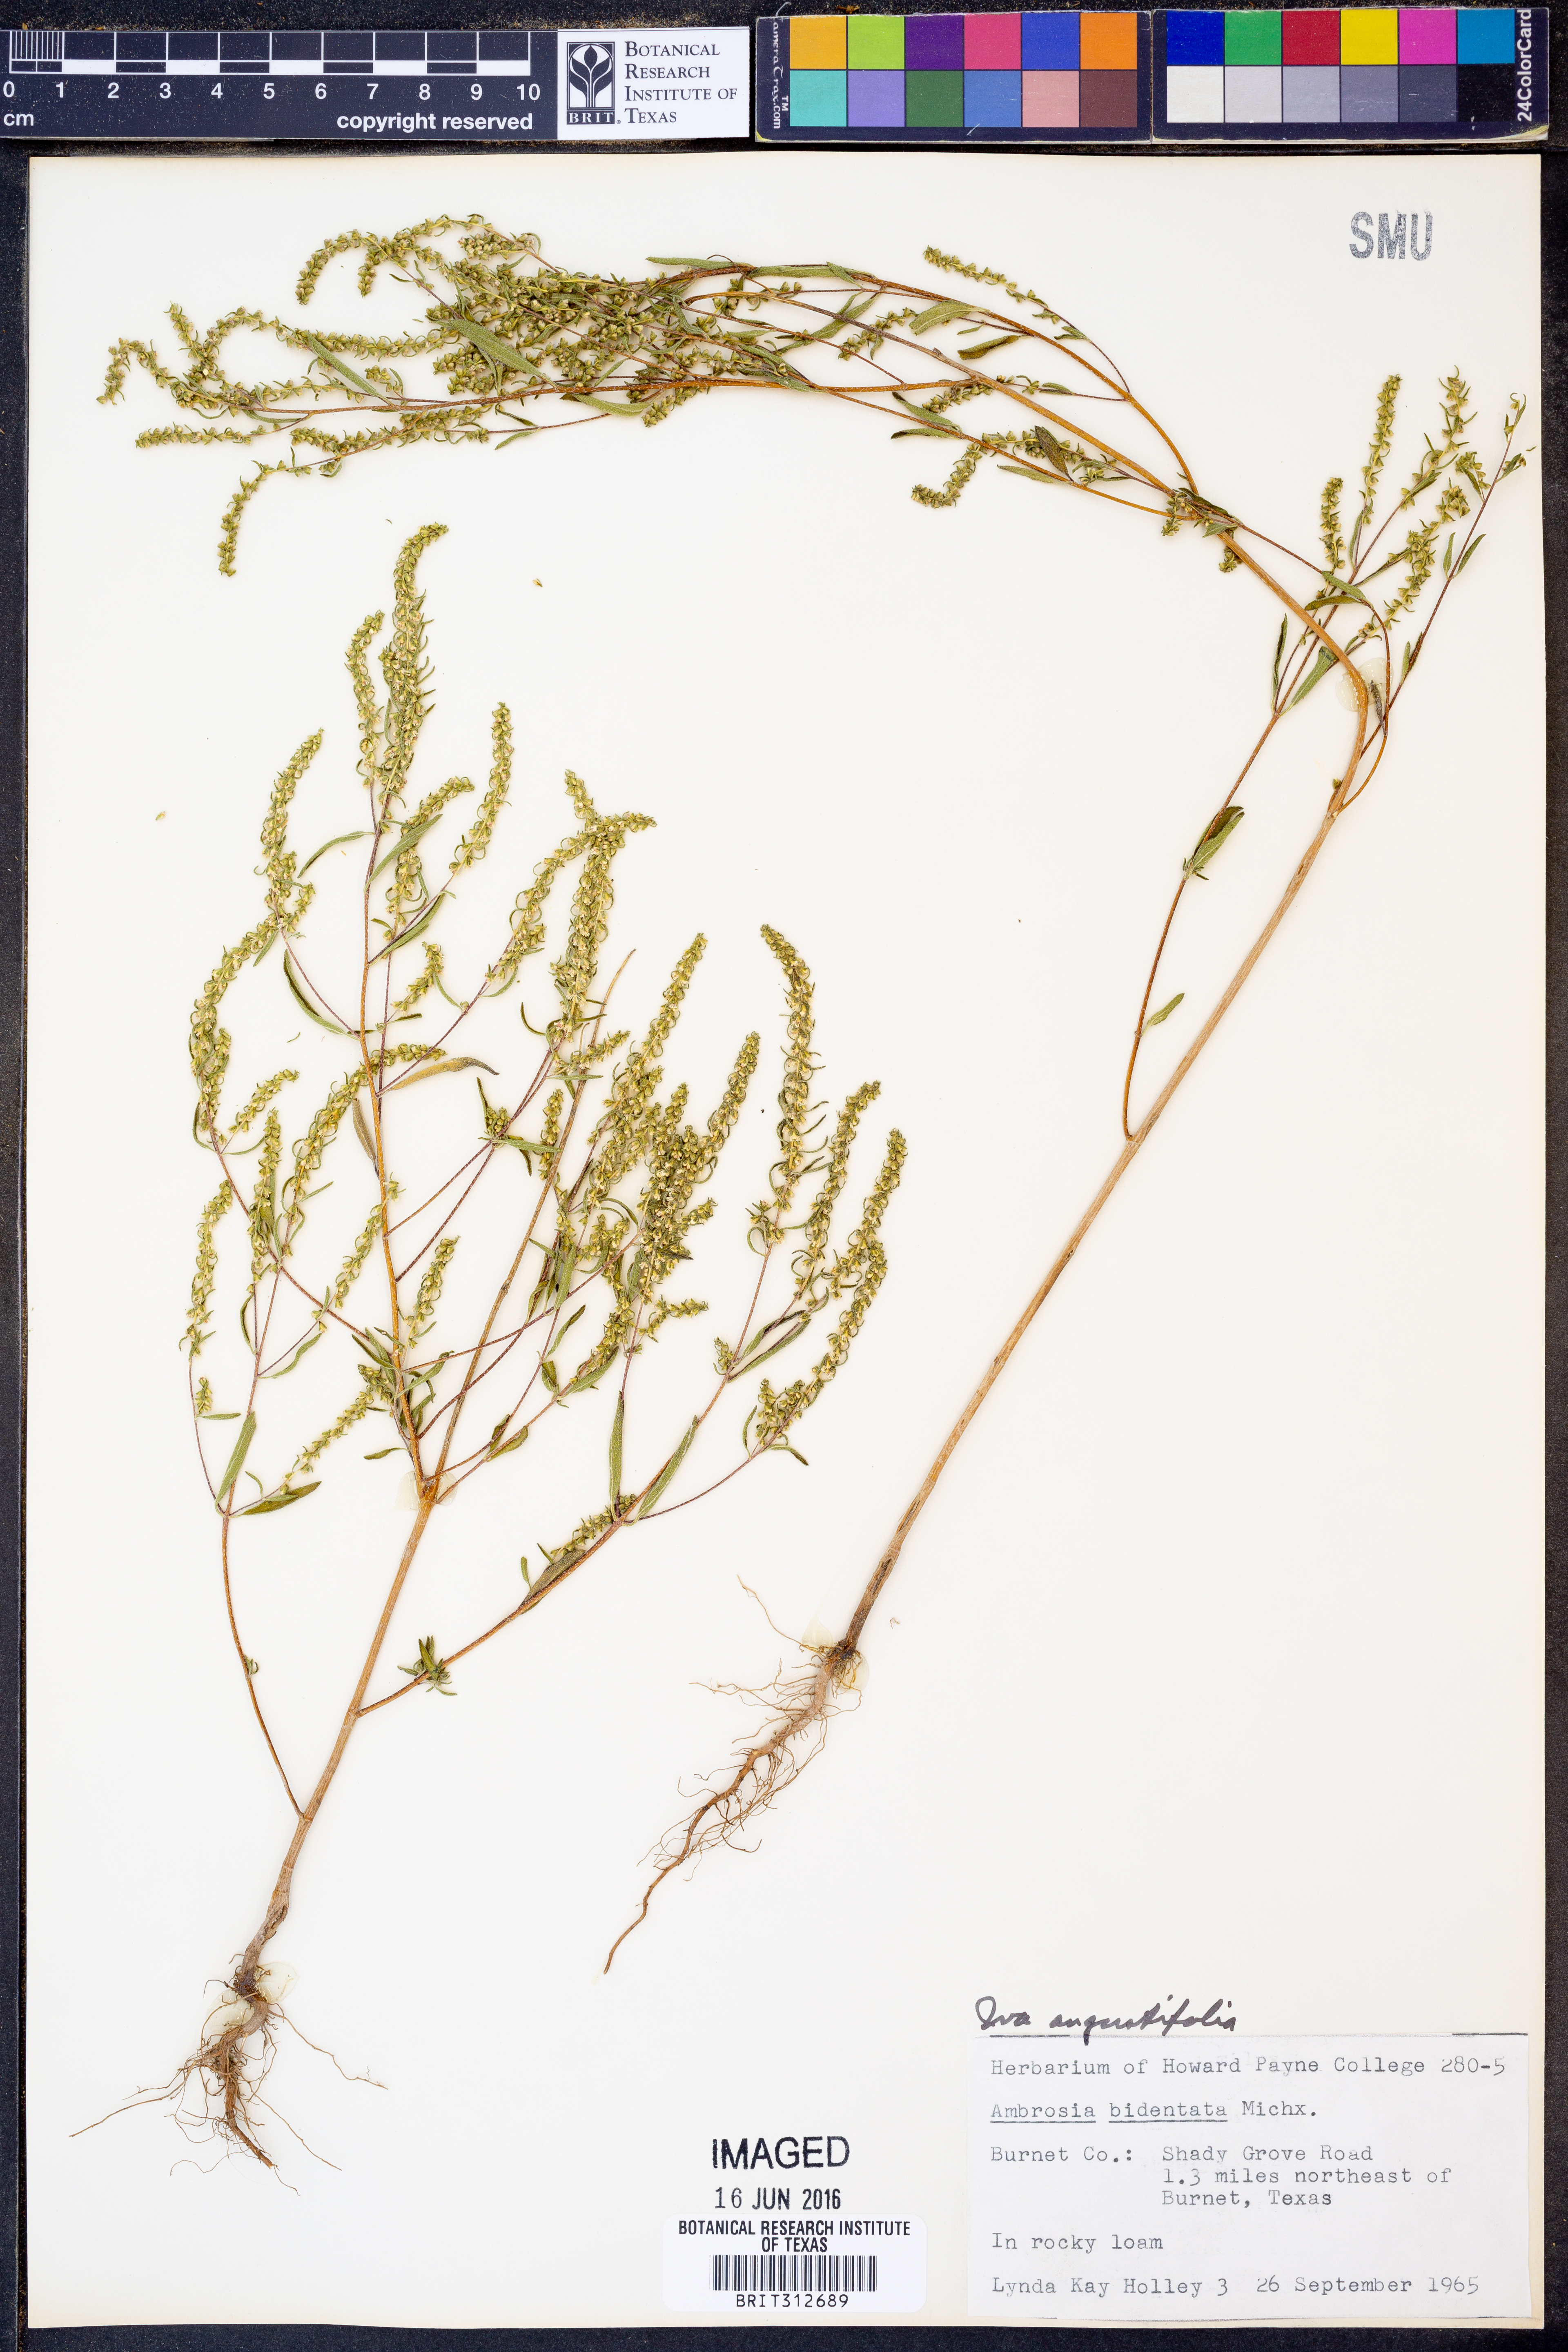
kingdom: Plantae
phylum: Tracheophyta
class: Magnoliopsida
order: Asterales
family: Asteraceae
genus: Iva
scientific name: Iva asperifolia
